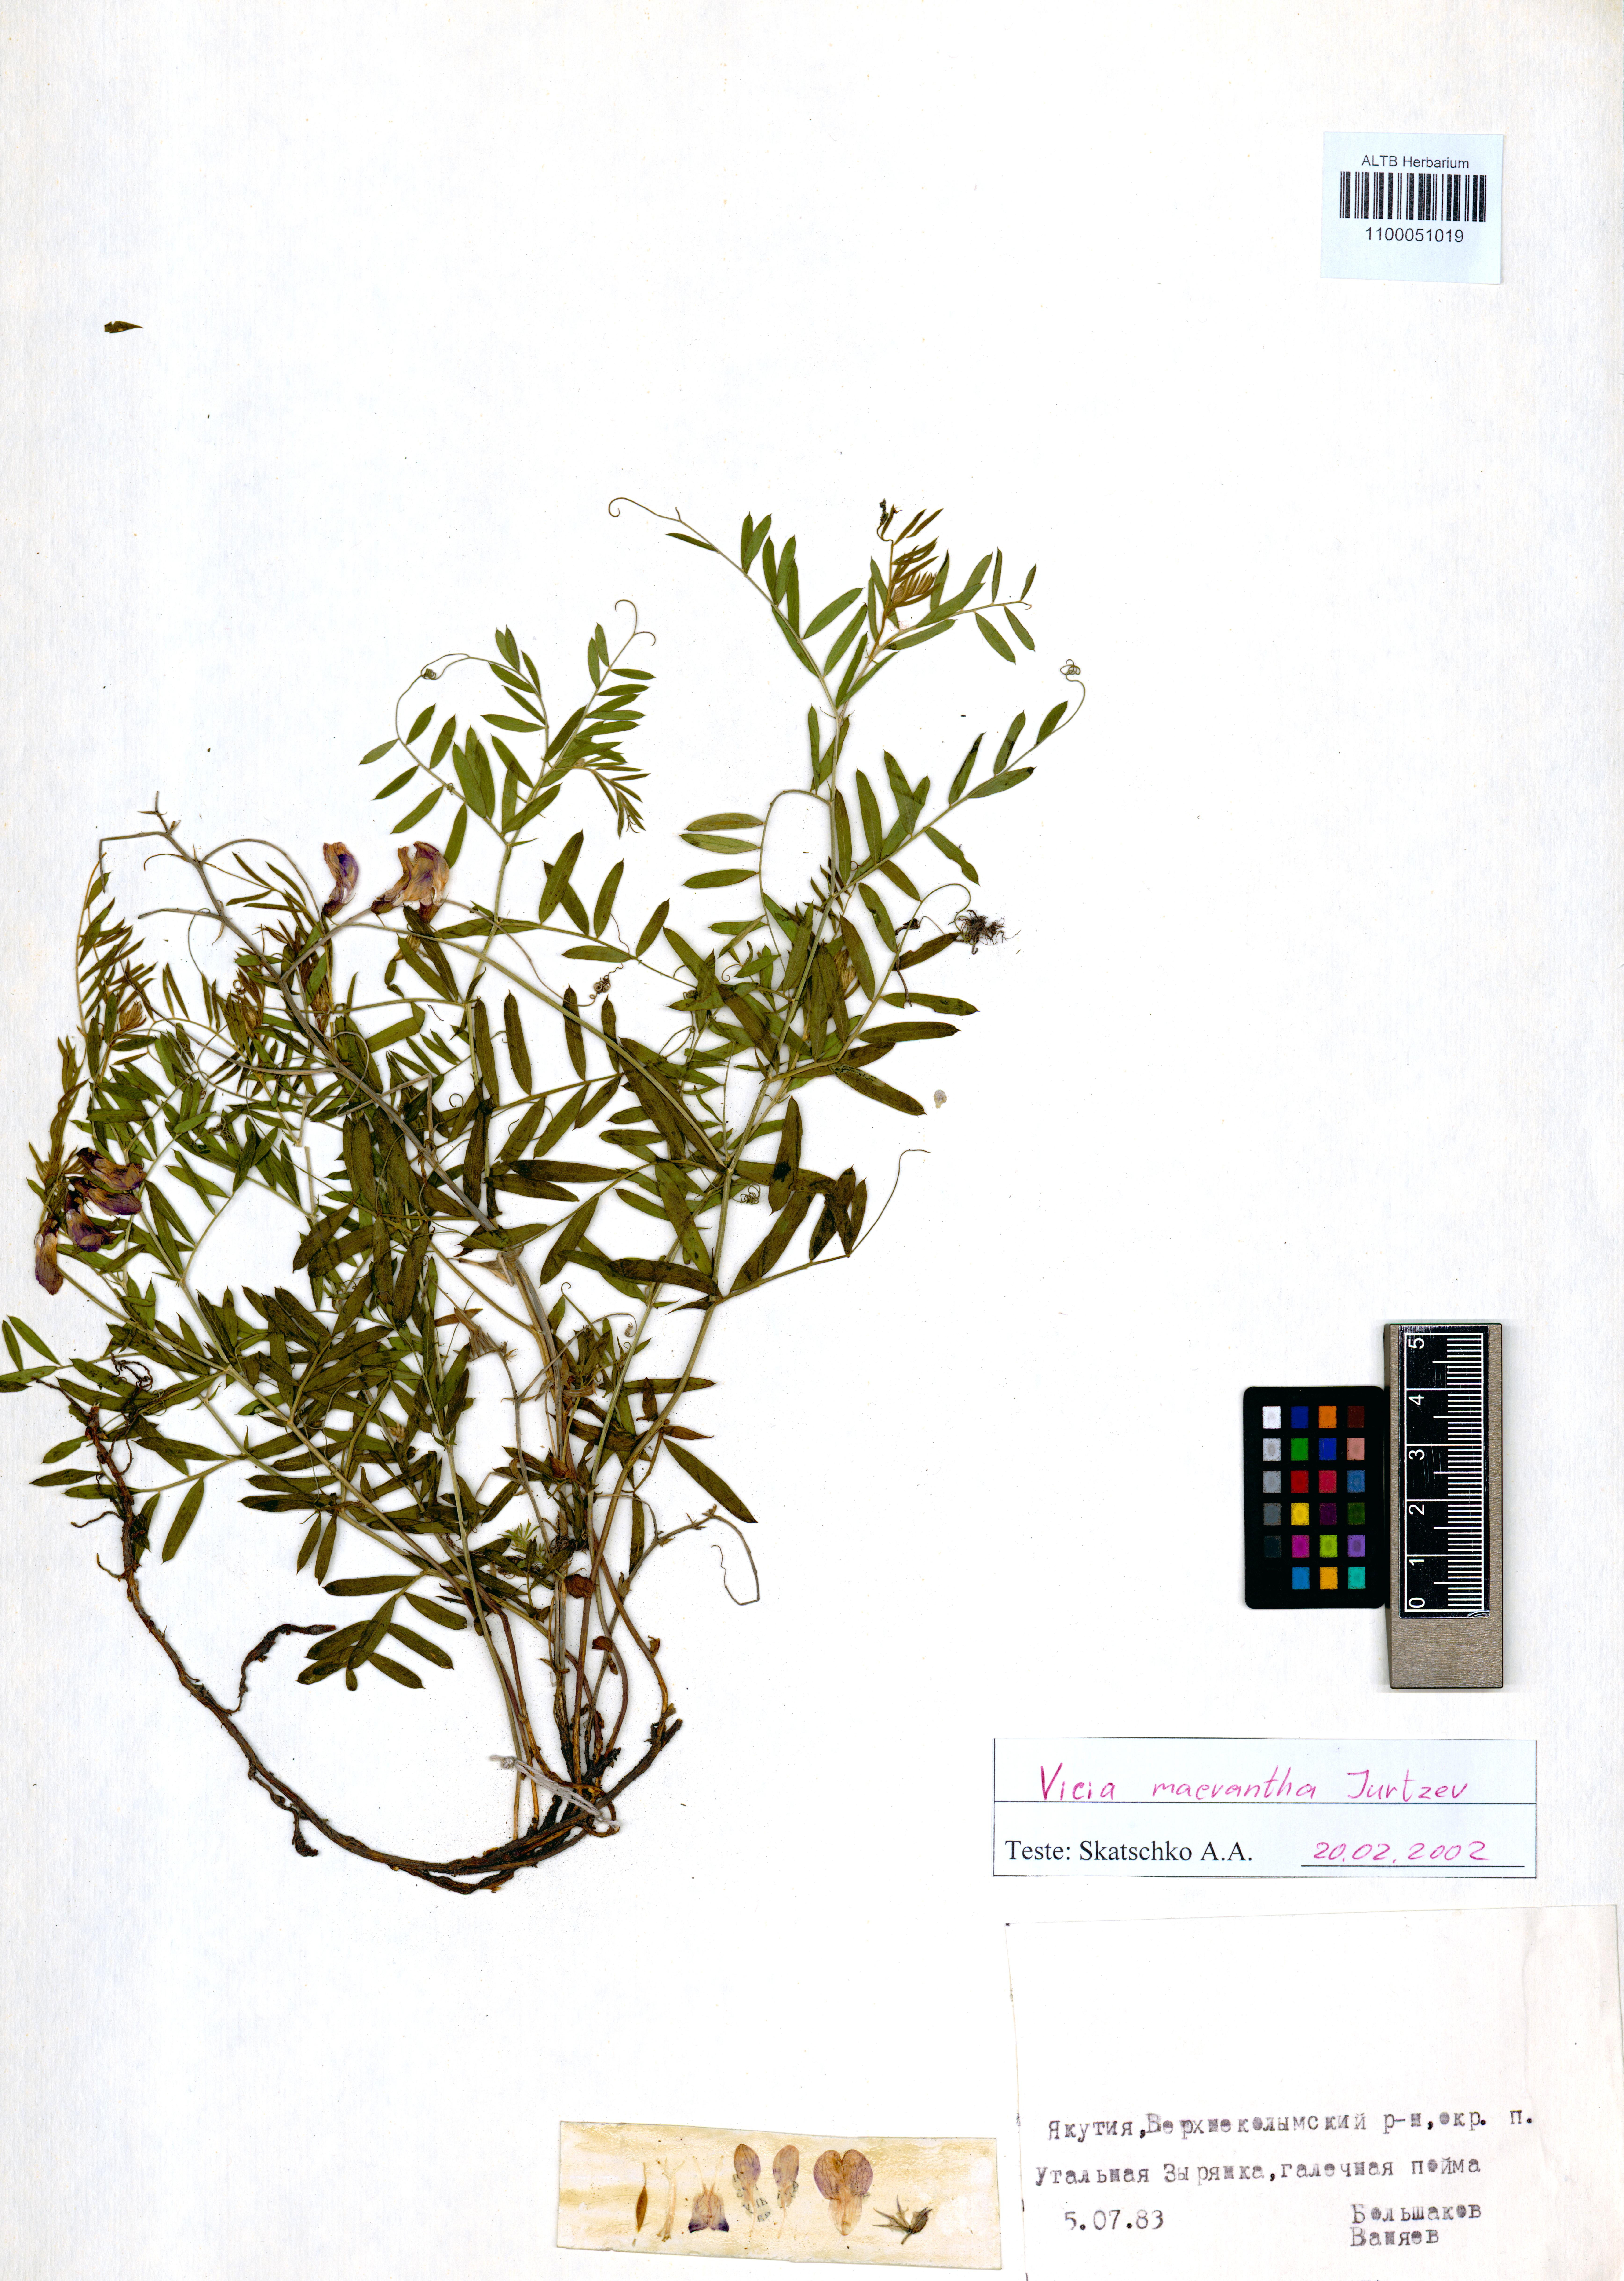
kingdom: Plantae
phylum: Tracheophyta
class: Magnoliopsida
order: Fabales
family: Fabaceae
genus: Vicia
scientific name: Vicia macrantha
